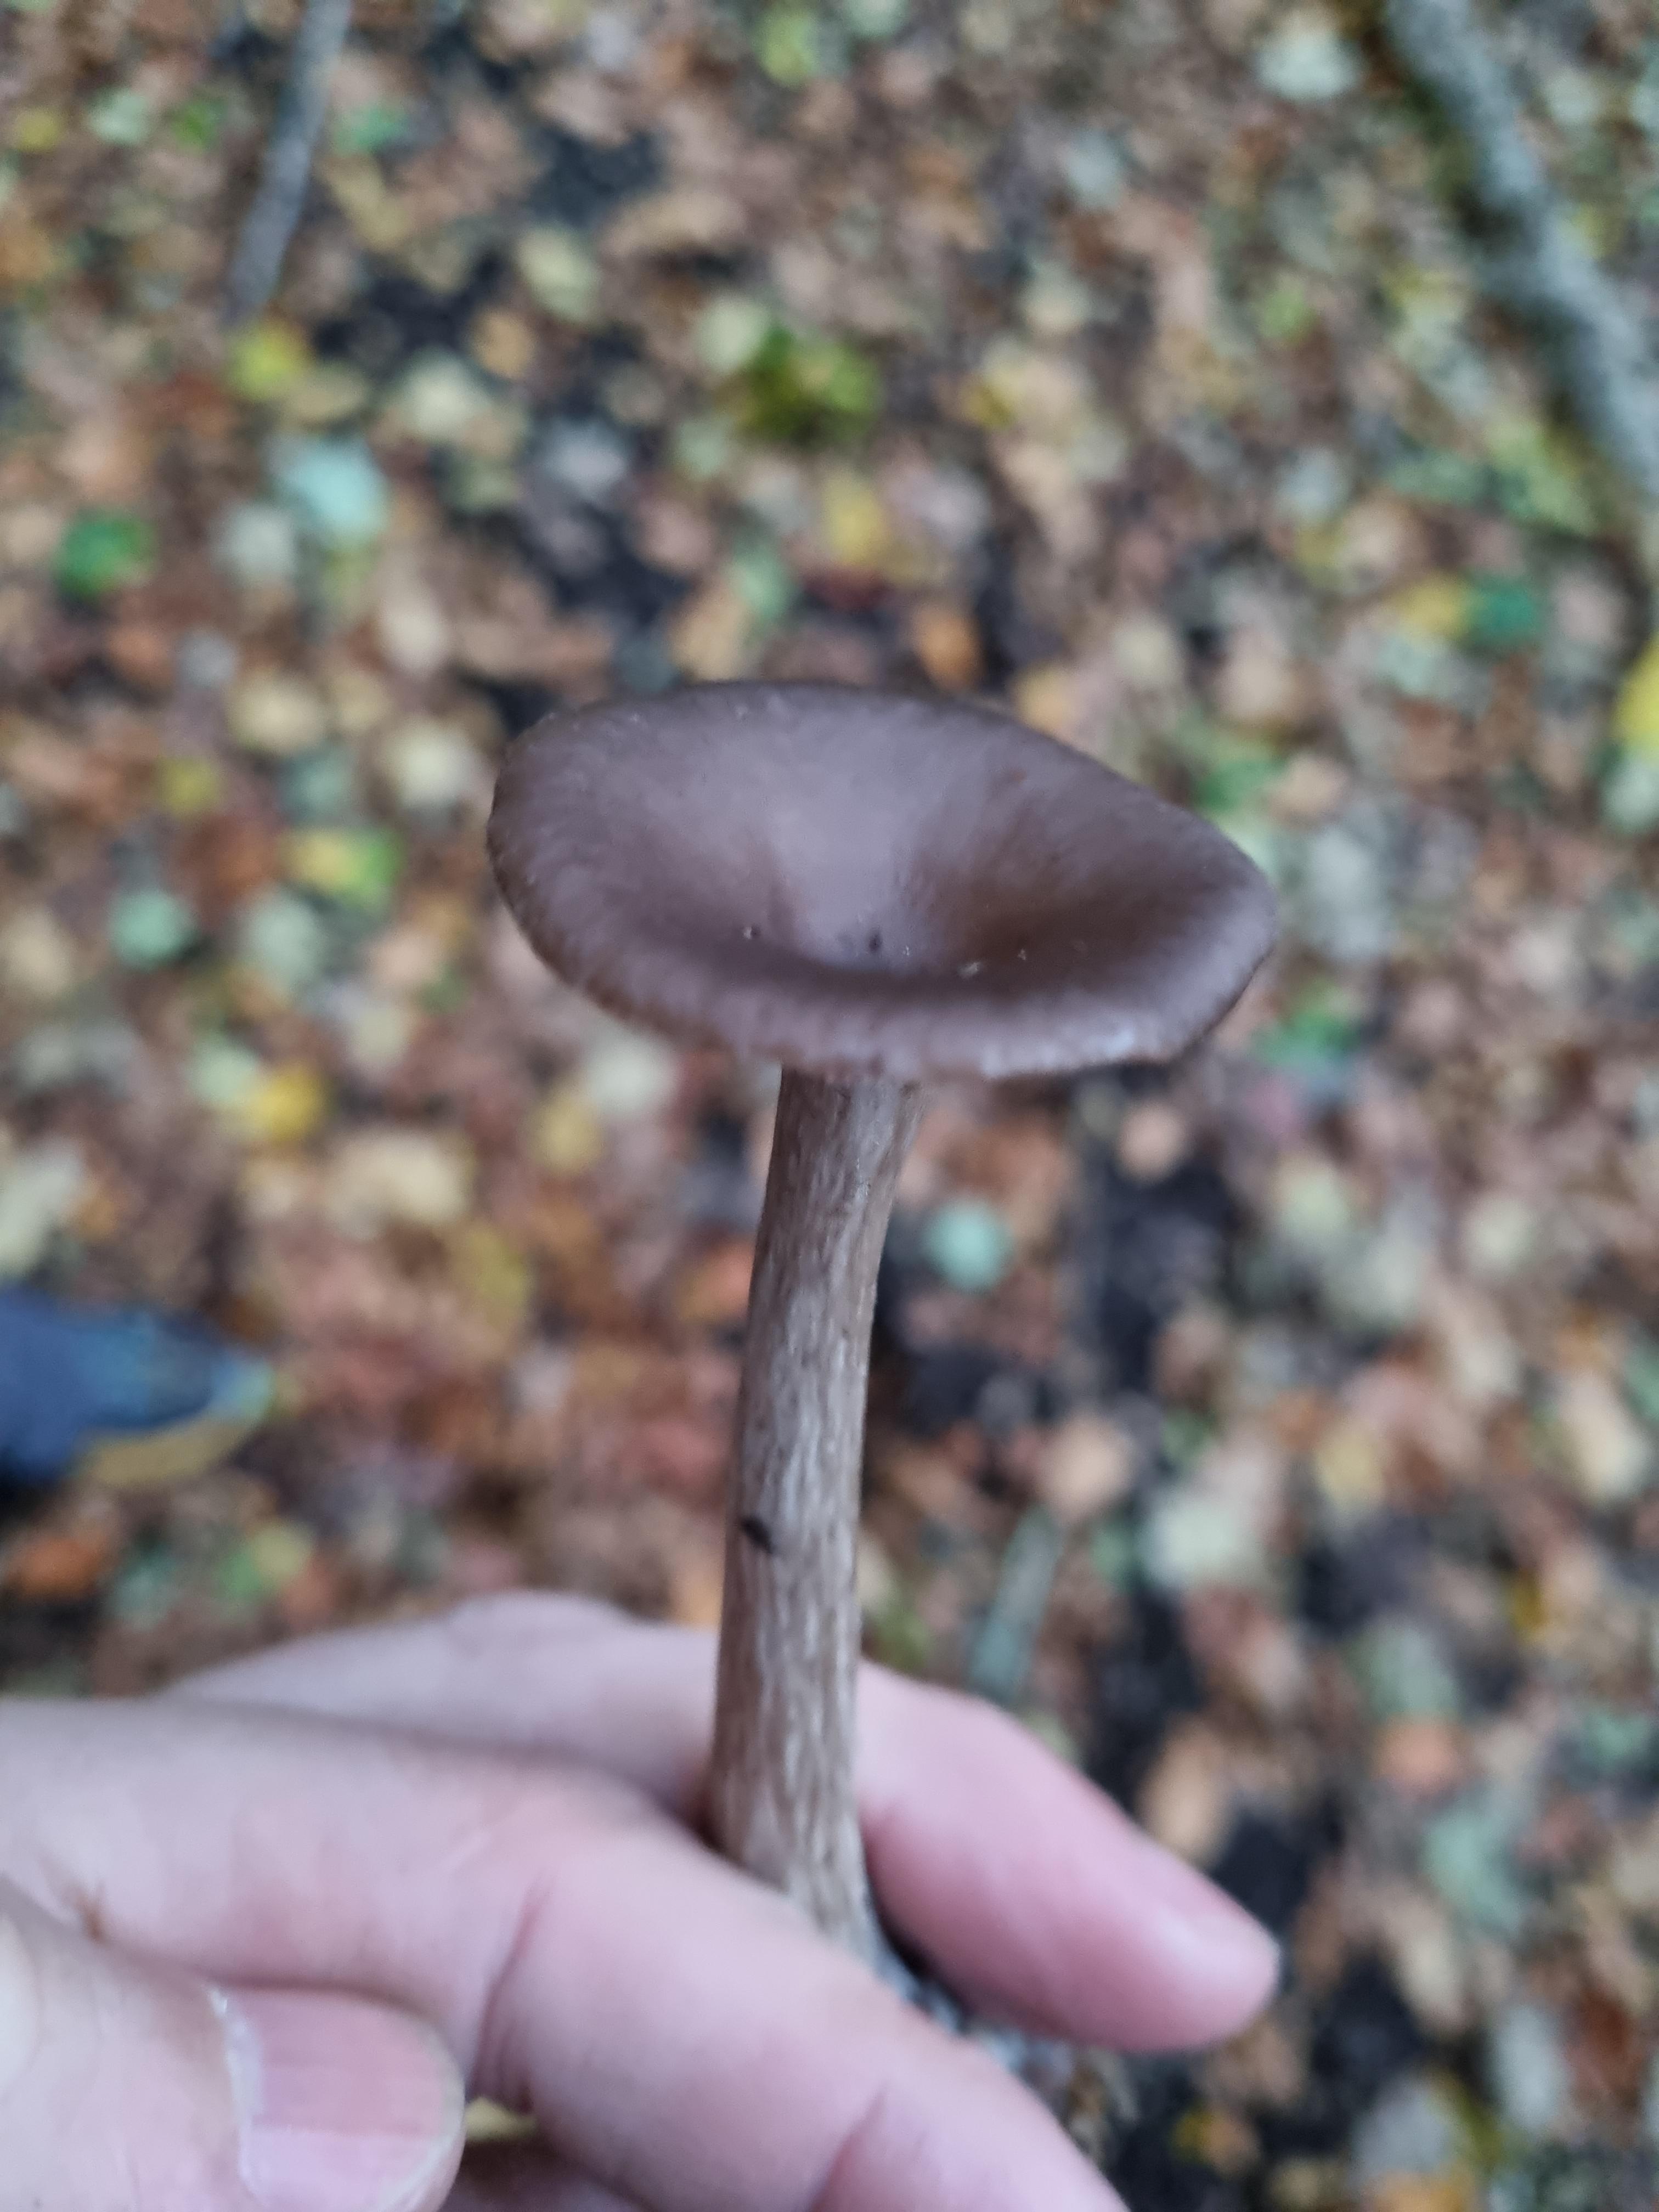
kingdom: Fungi
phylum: Basidiomycota
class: Agaricomycetes
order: Agaricales
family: Pseudoclitocybaceae
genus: Pseudoclitocybe
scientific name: Pseudoclitocybe cyathiformis
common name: almindelig bægertragthat
